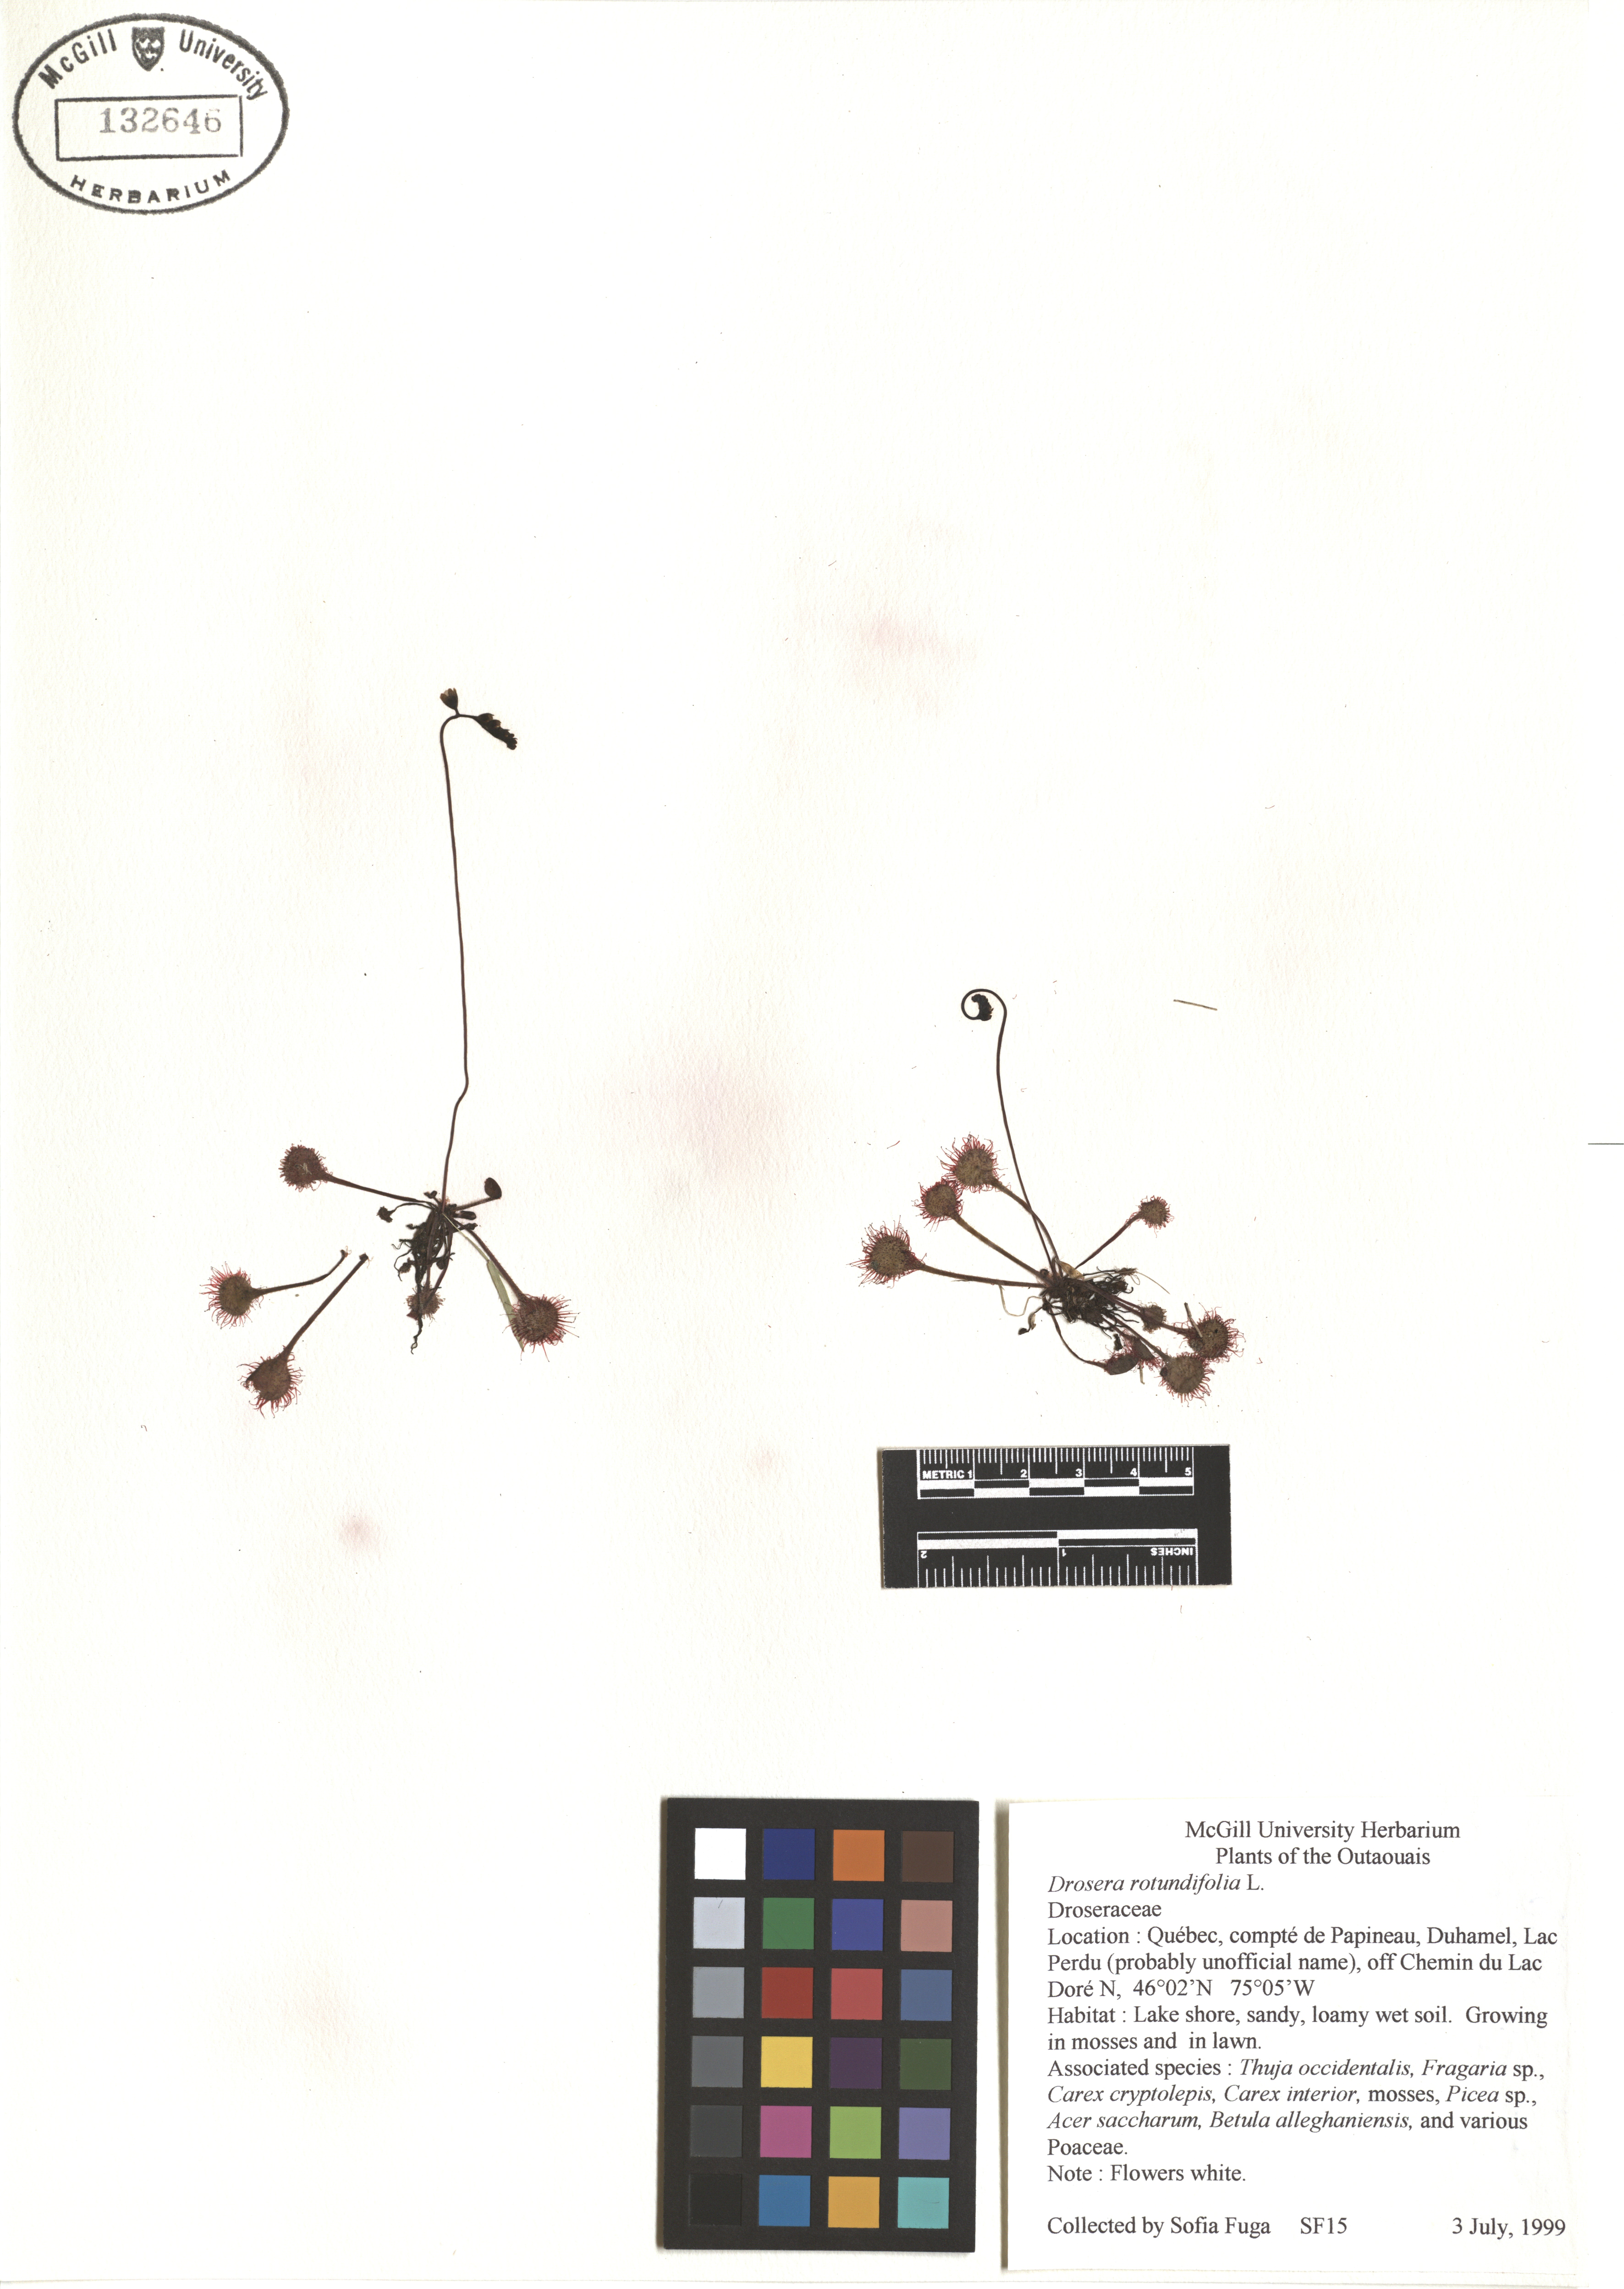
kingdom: Plantae
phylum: Tracheophyta
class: Magnoliopsida
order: Caryophyllales
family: Droseraceae
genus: Drosera
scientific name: Drosera rotundifolia
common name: Round-leaved sundew
